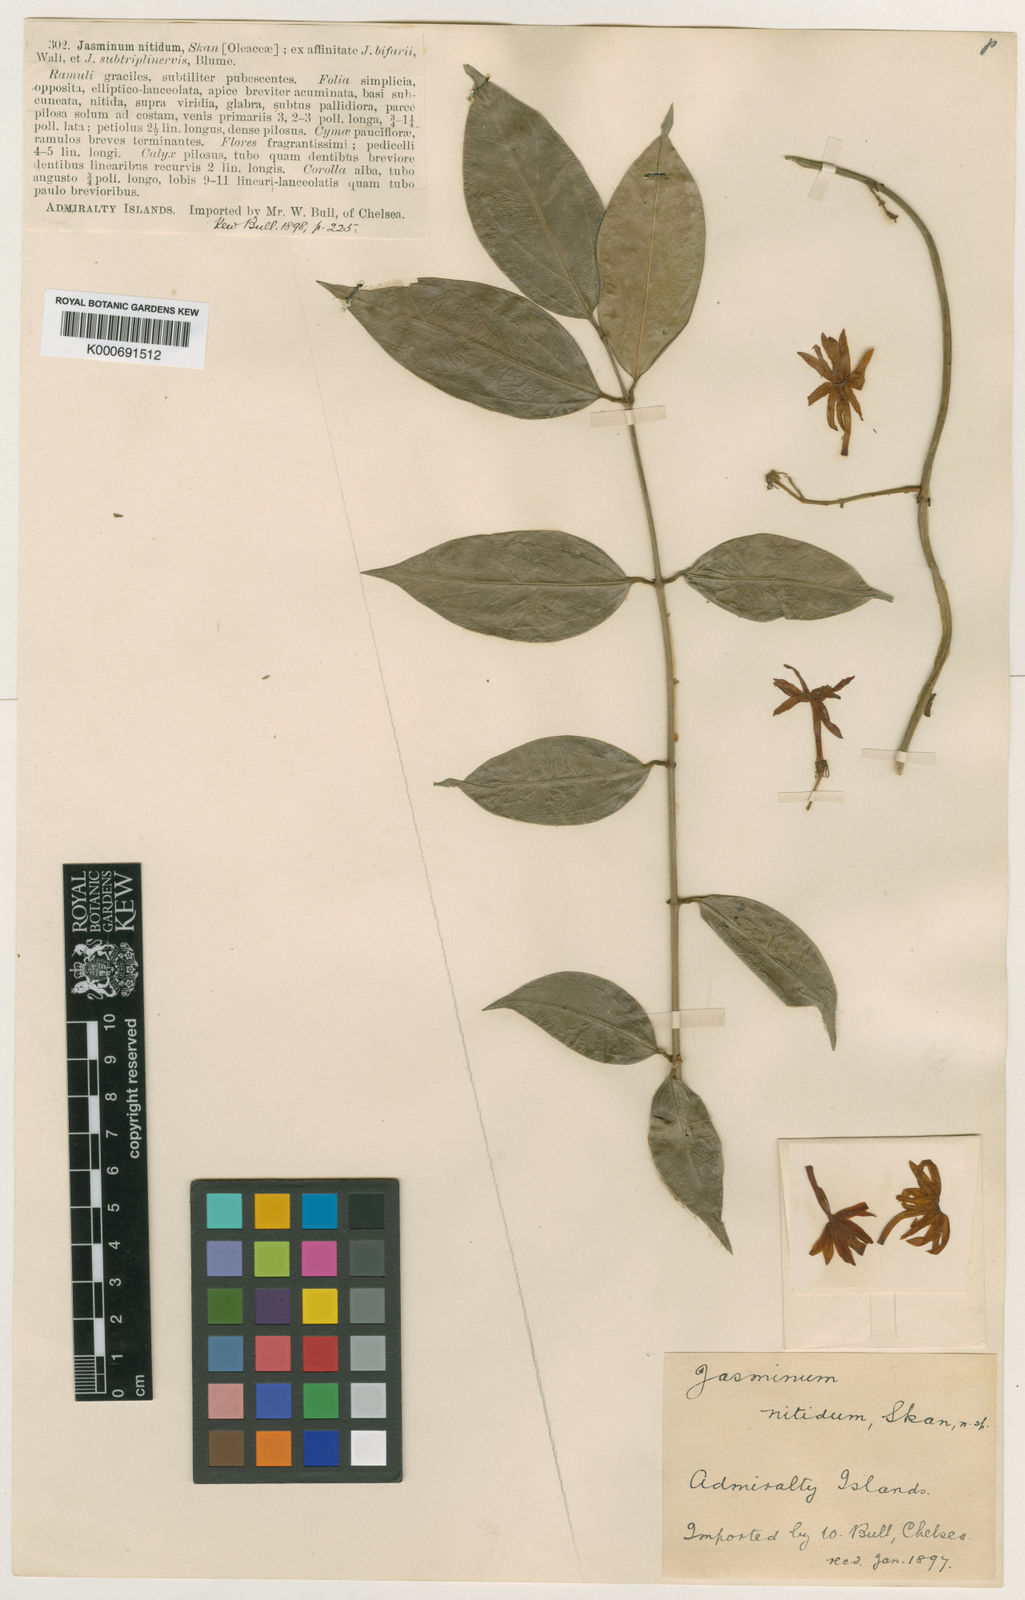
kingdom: Plantae
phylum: Tracheophyta
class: Magnoliopsida
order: Lamiales
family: Oleaceae
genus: Jasminum
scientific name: Jasminum laurifolium
